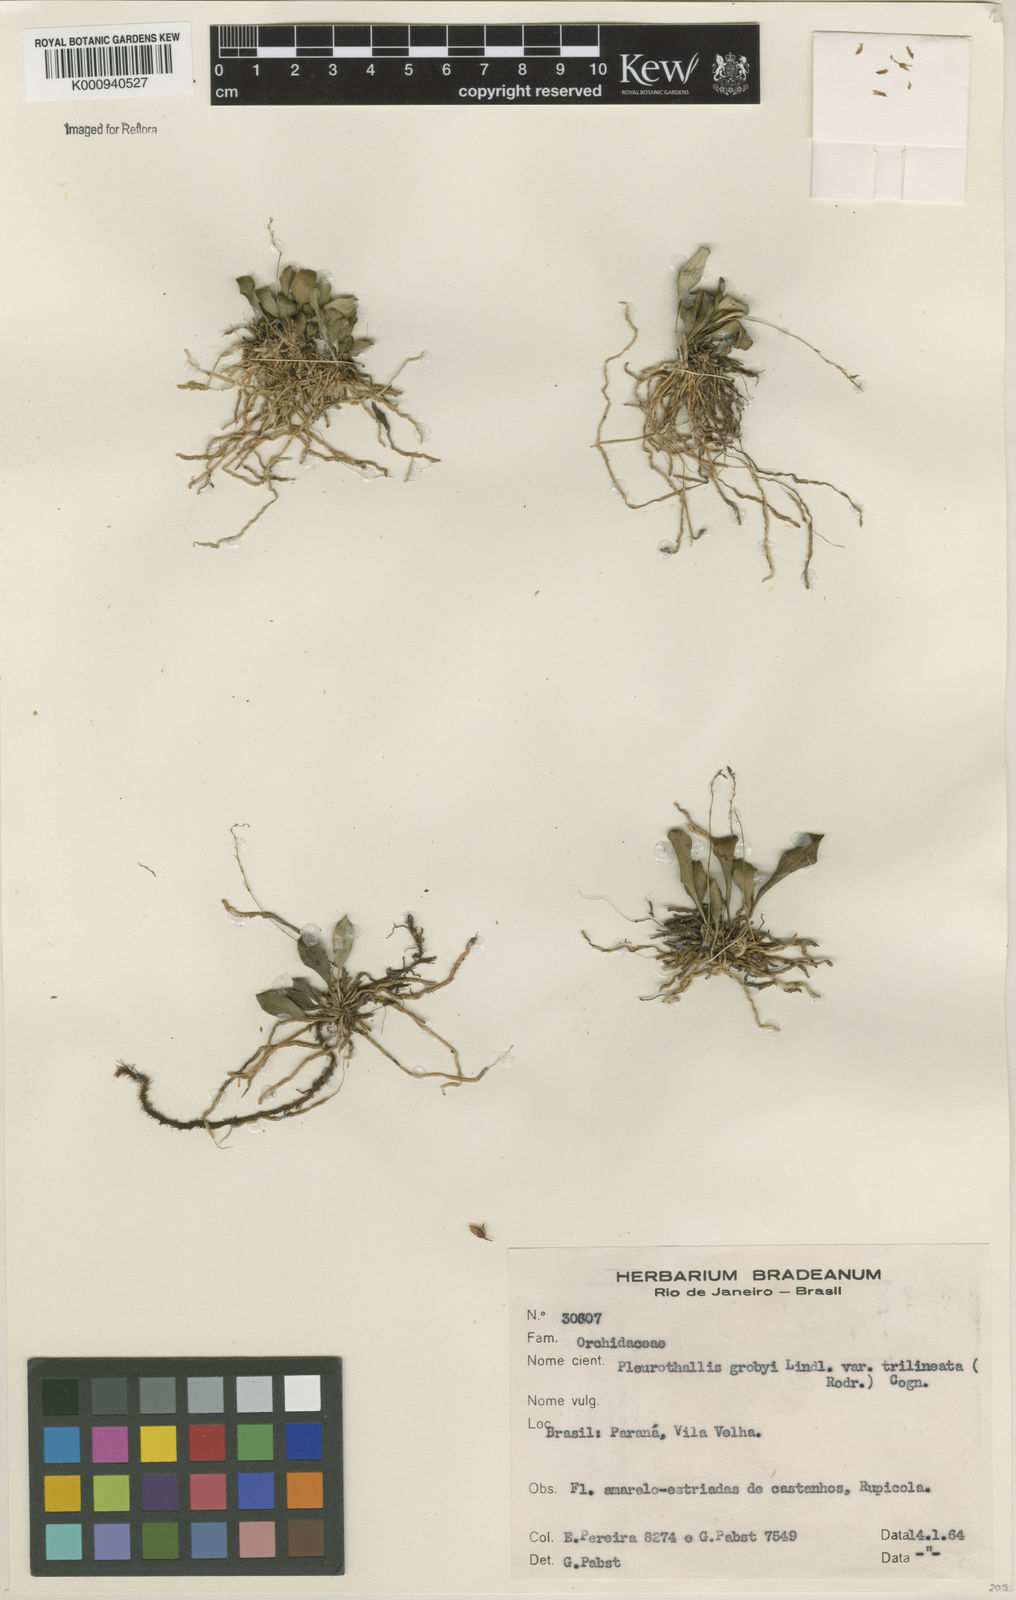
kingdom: Plantae
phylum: Tracheophyta
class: Liliopsida
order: Asparagales
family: Orchidaceae
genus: Specklinia
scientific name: Specklinia grobyi
